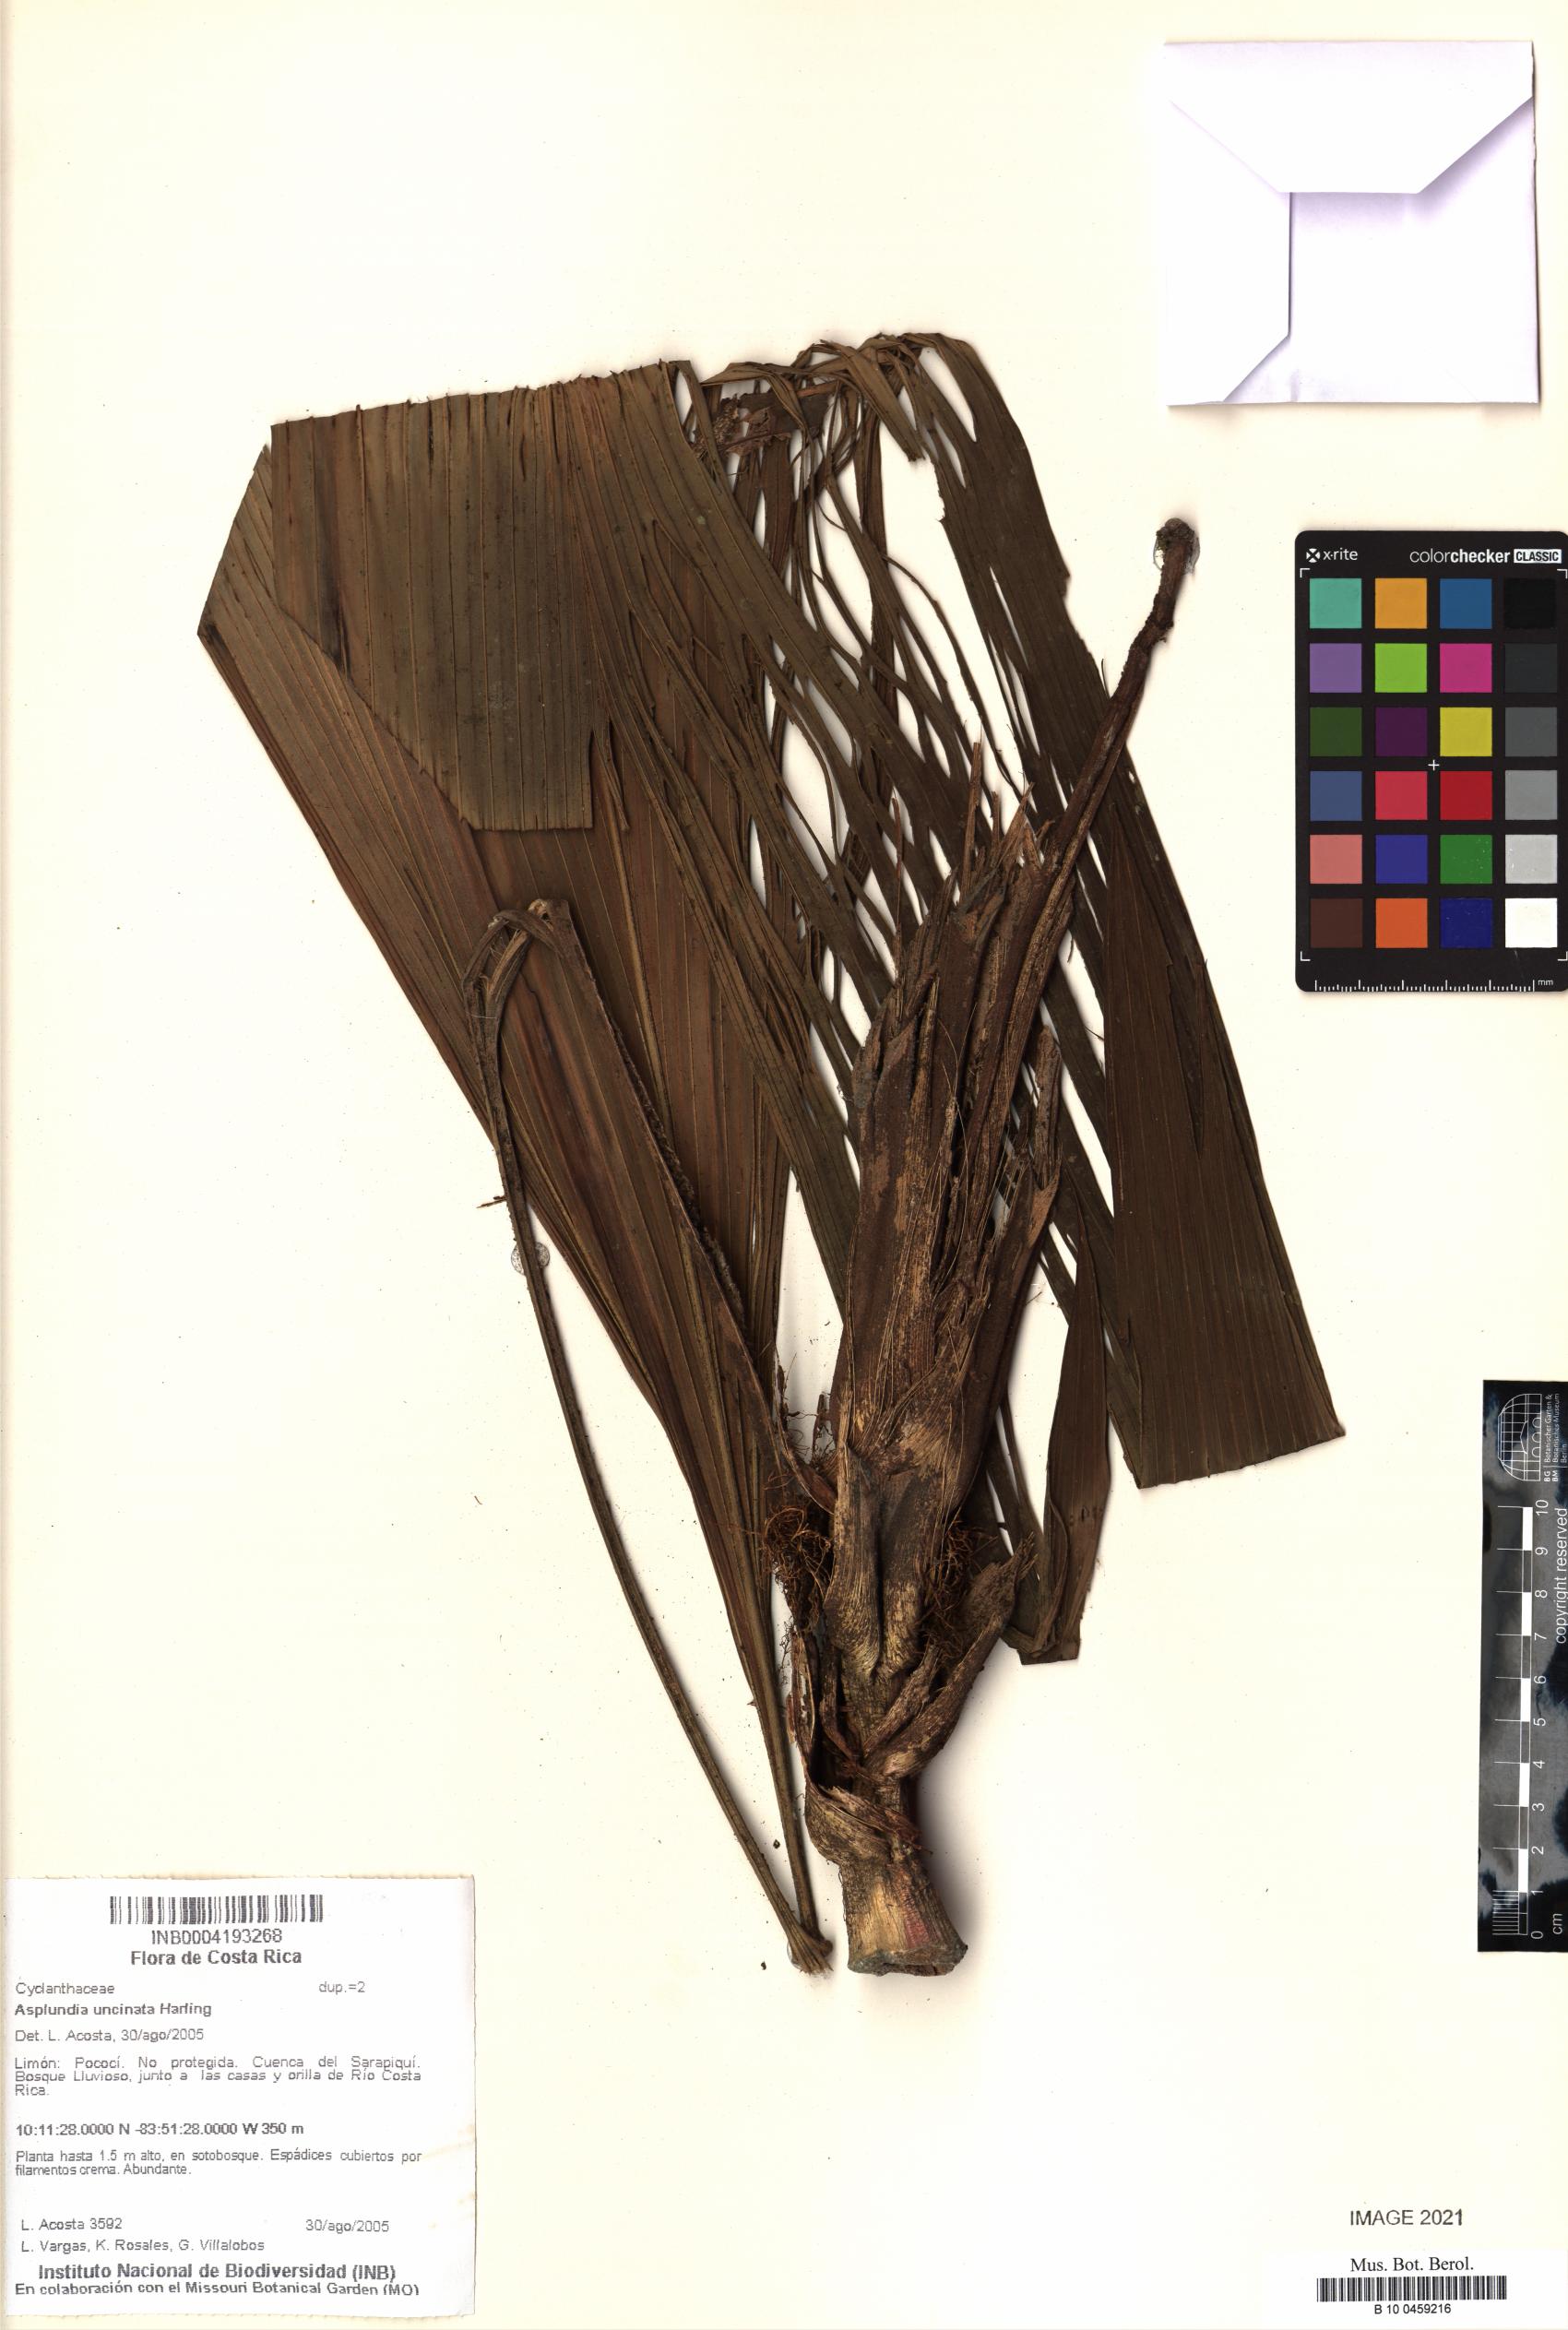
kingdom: Plantae
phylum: Tracheophyta
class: Liliopsida
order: Pandanales
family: Cyclanthaceae
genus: Asplundia
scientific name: Asplundia uncinata
